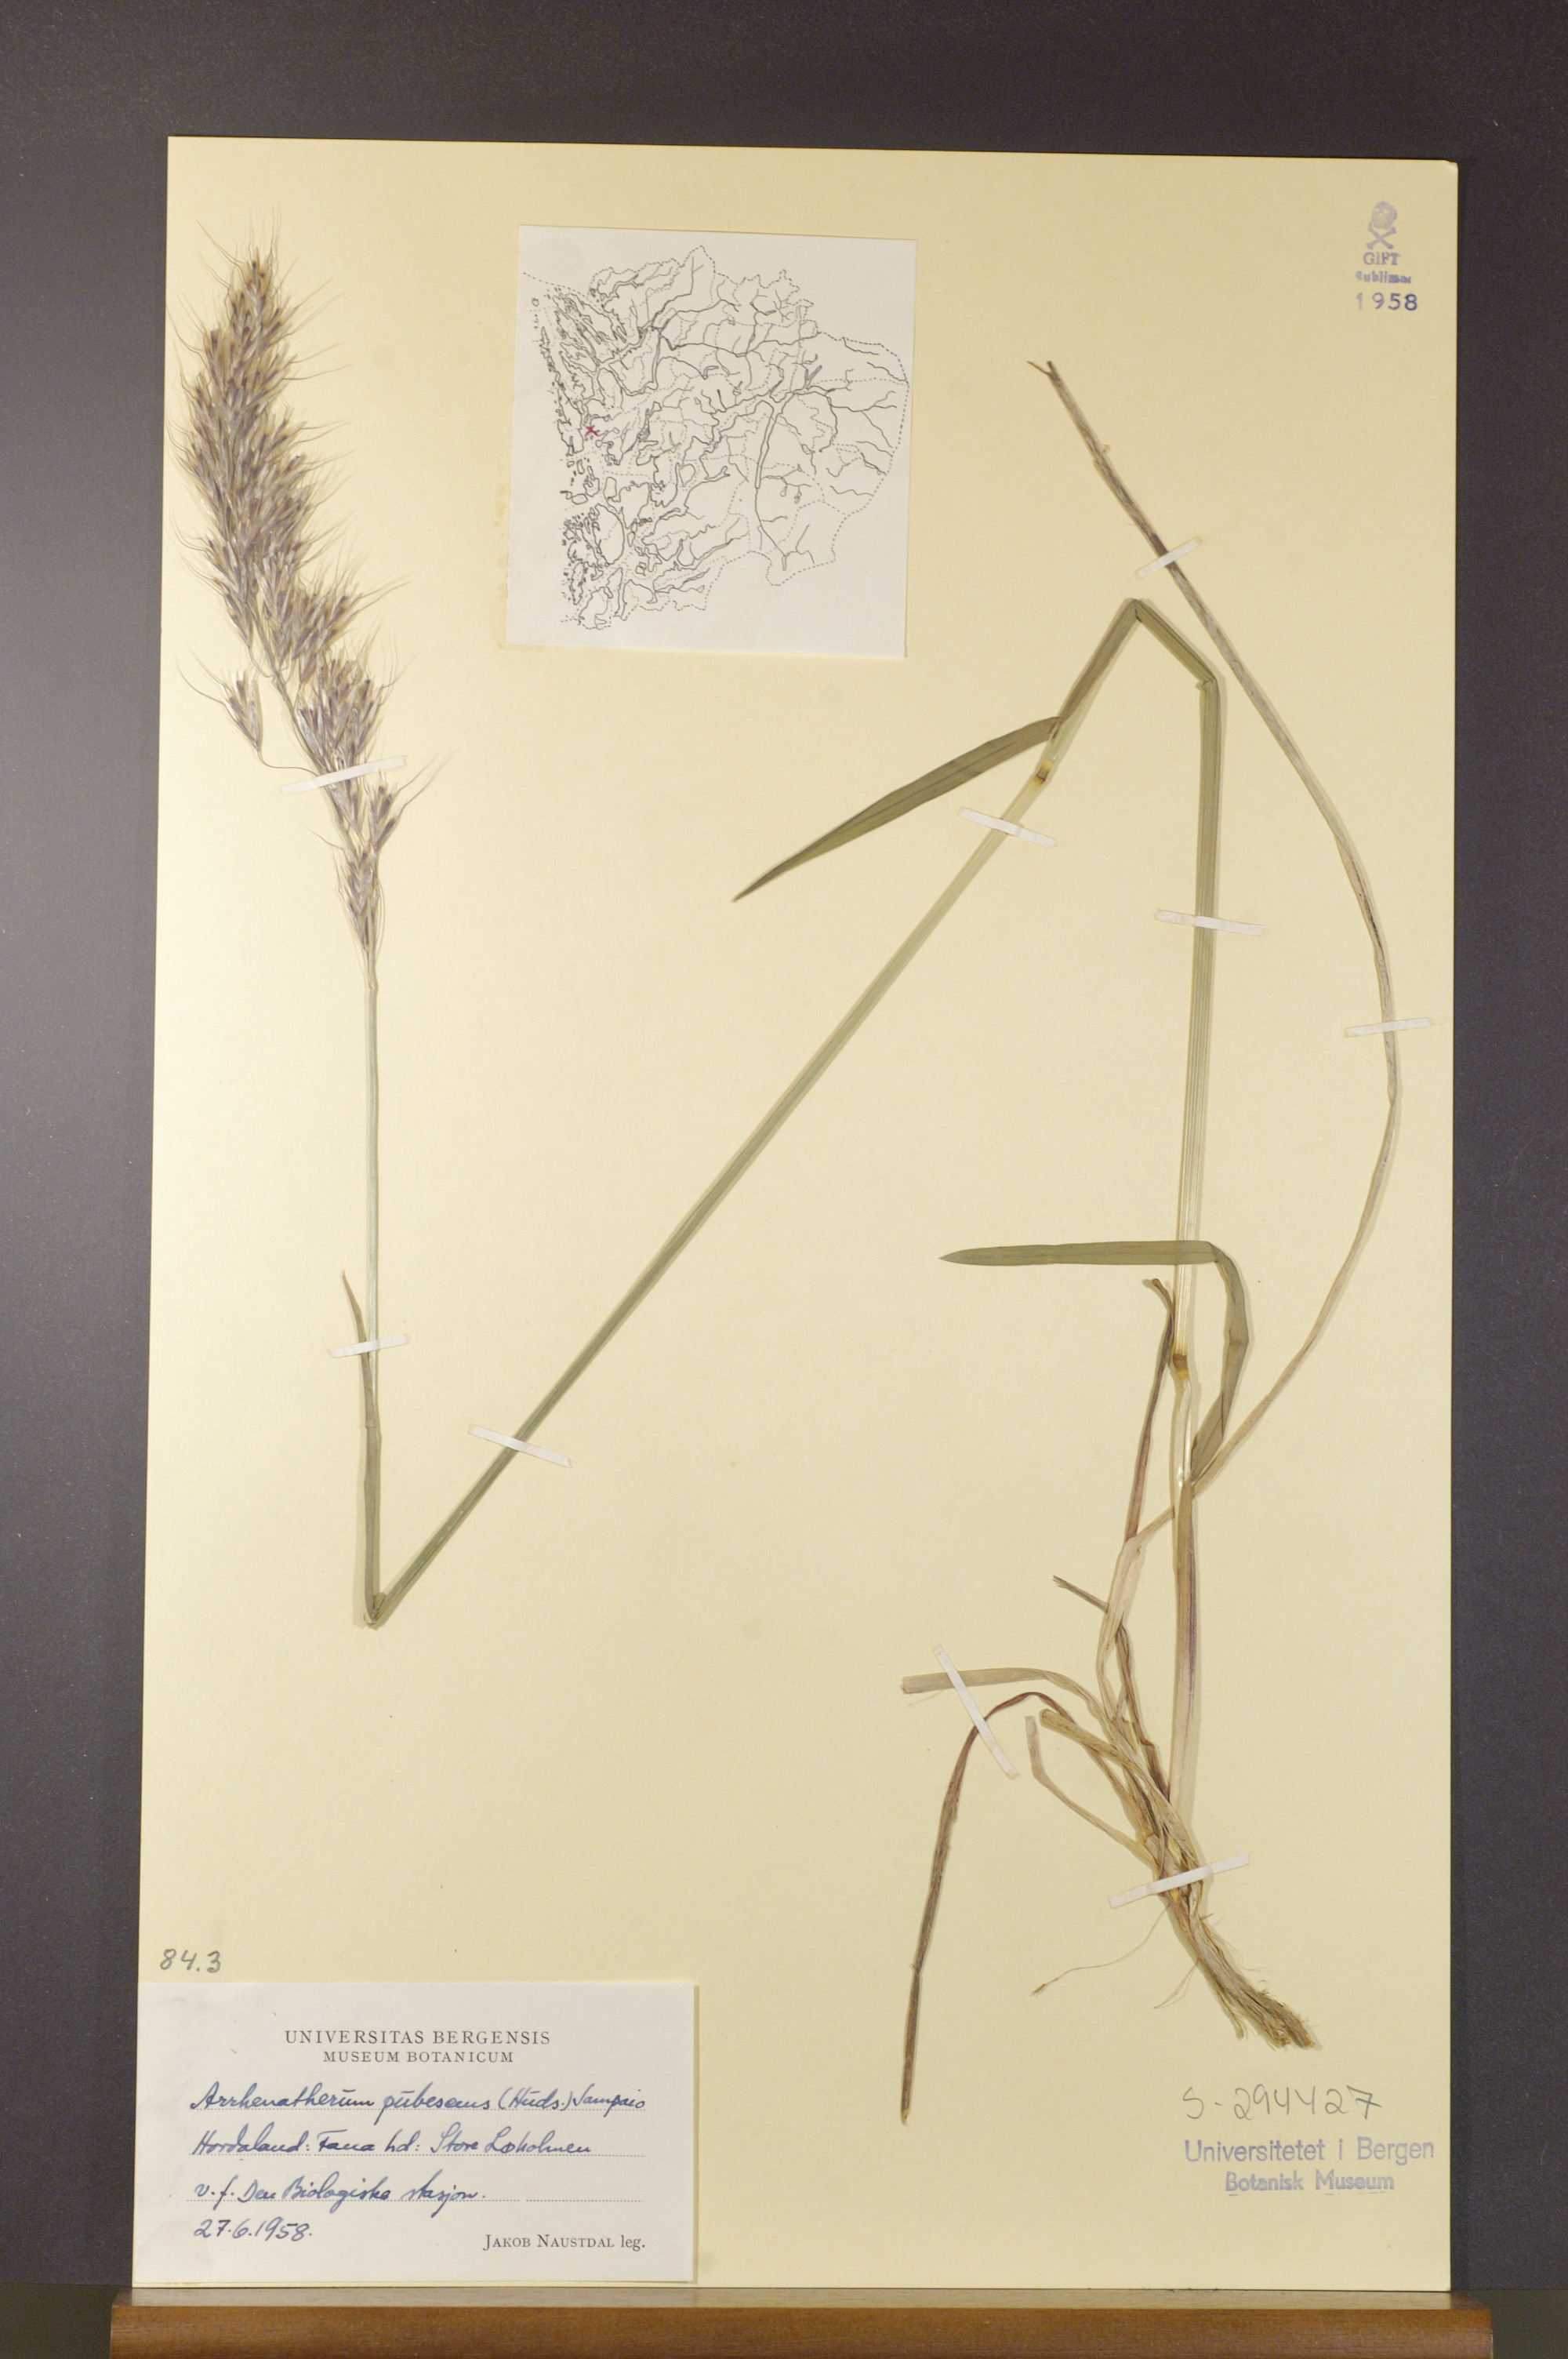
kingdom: Plantae
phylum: Tracheophyta
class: Liliopsida
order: Poales
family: Poaceae
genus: Avenula
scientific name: Avenula pubescens
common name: Downy alpine oatgrass
